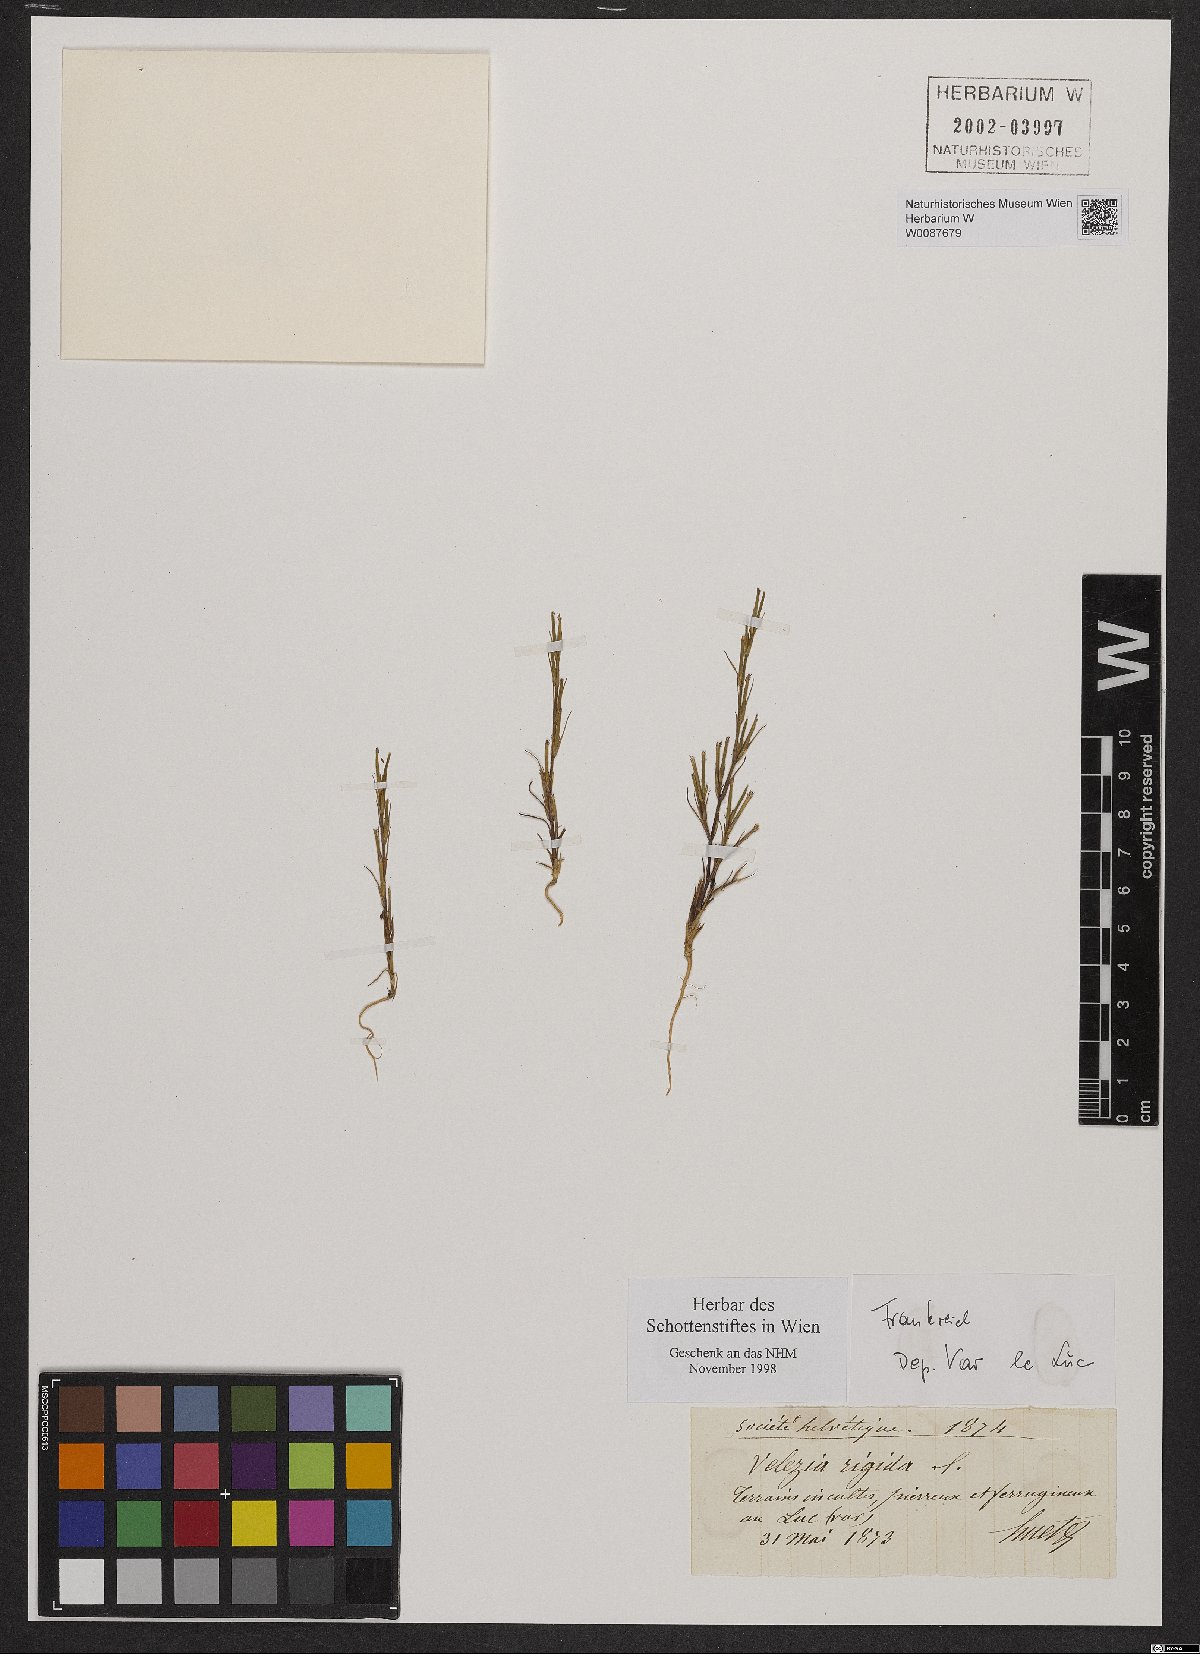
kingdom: Plantae
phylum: Tracheophyta
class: Magnoliopsida
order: Caryophyllales
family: Caryophyllaceae
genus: Dianthus
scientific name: Dianthus nudiflorus
